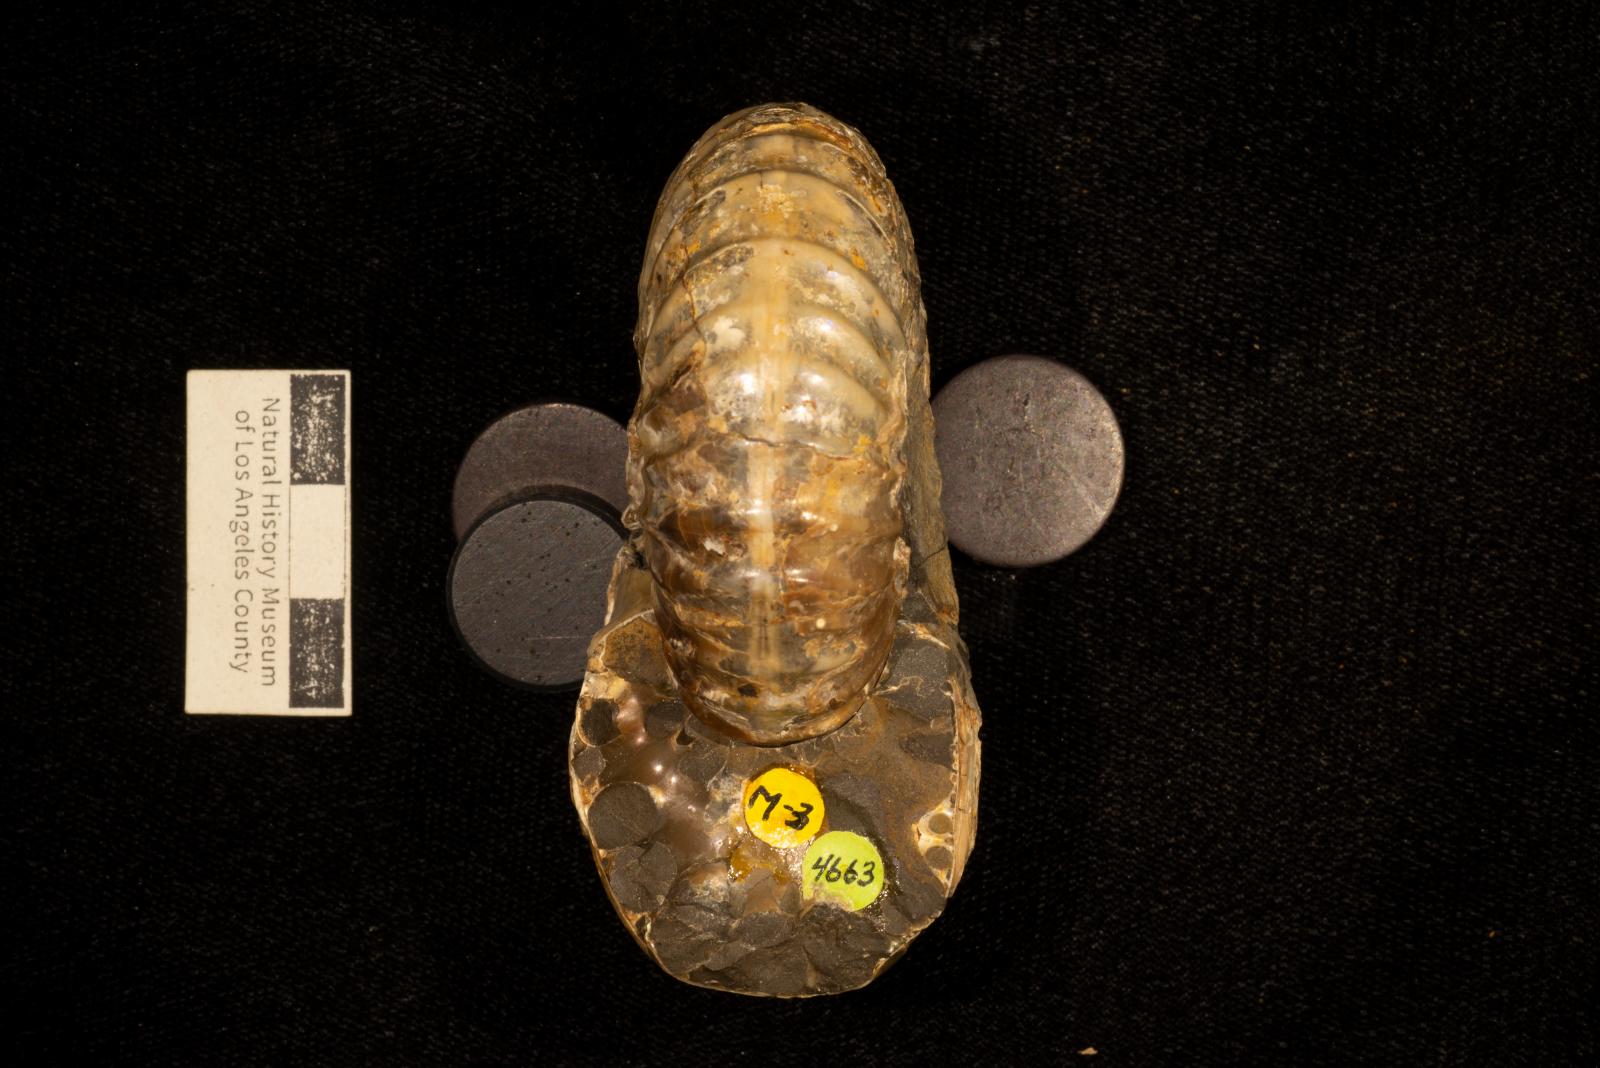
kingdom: Animalia
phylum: Mollusca
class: Cephalopoda
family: Pachydiscidae
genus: Eupachydiscus
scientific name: Eupachydiscus Pachydiscus teshioensis
